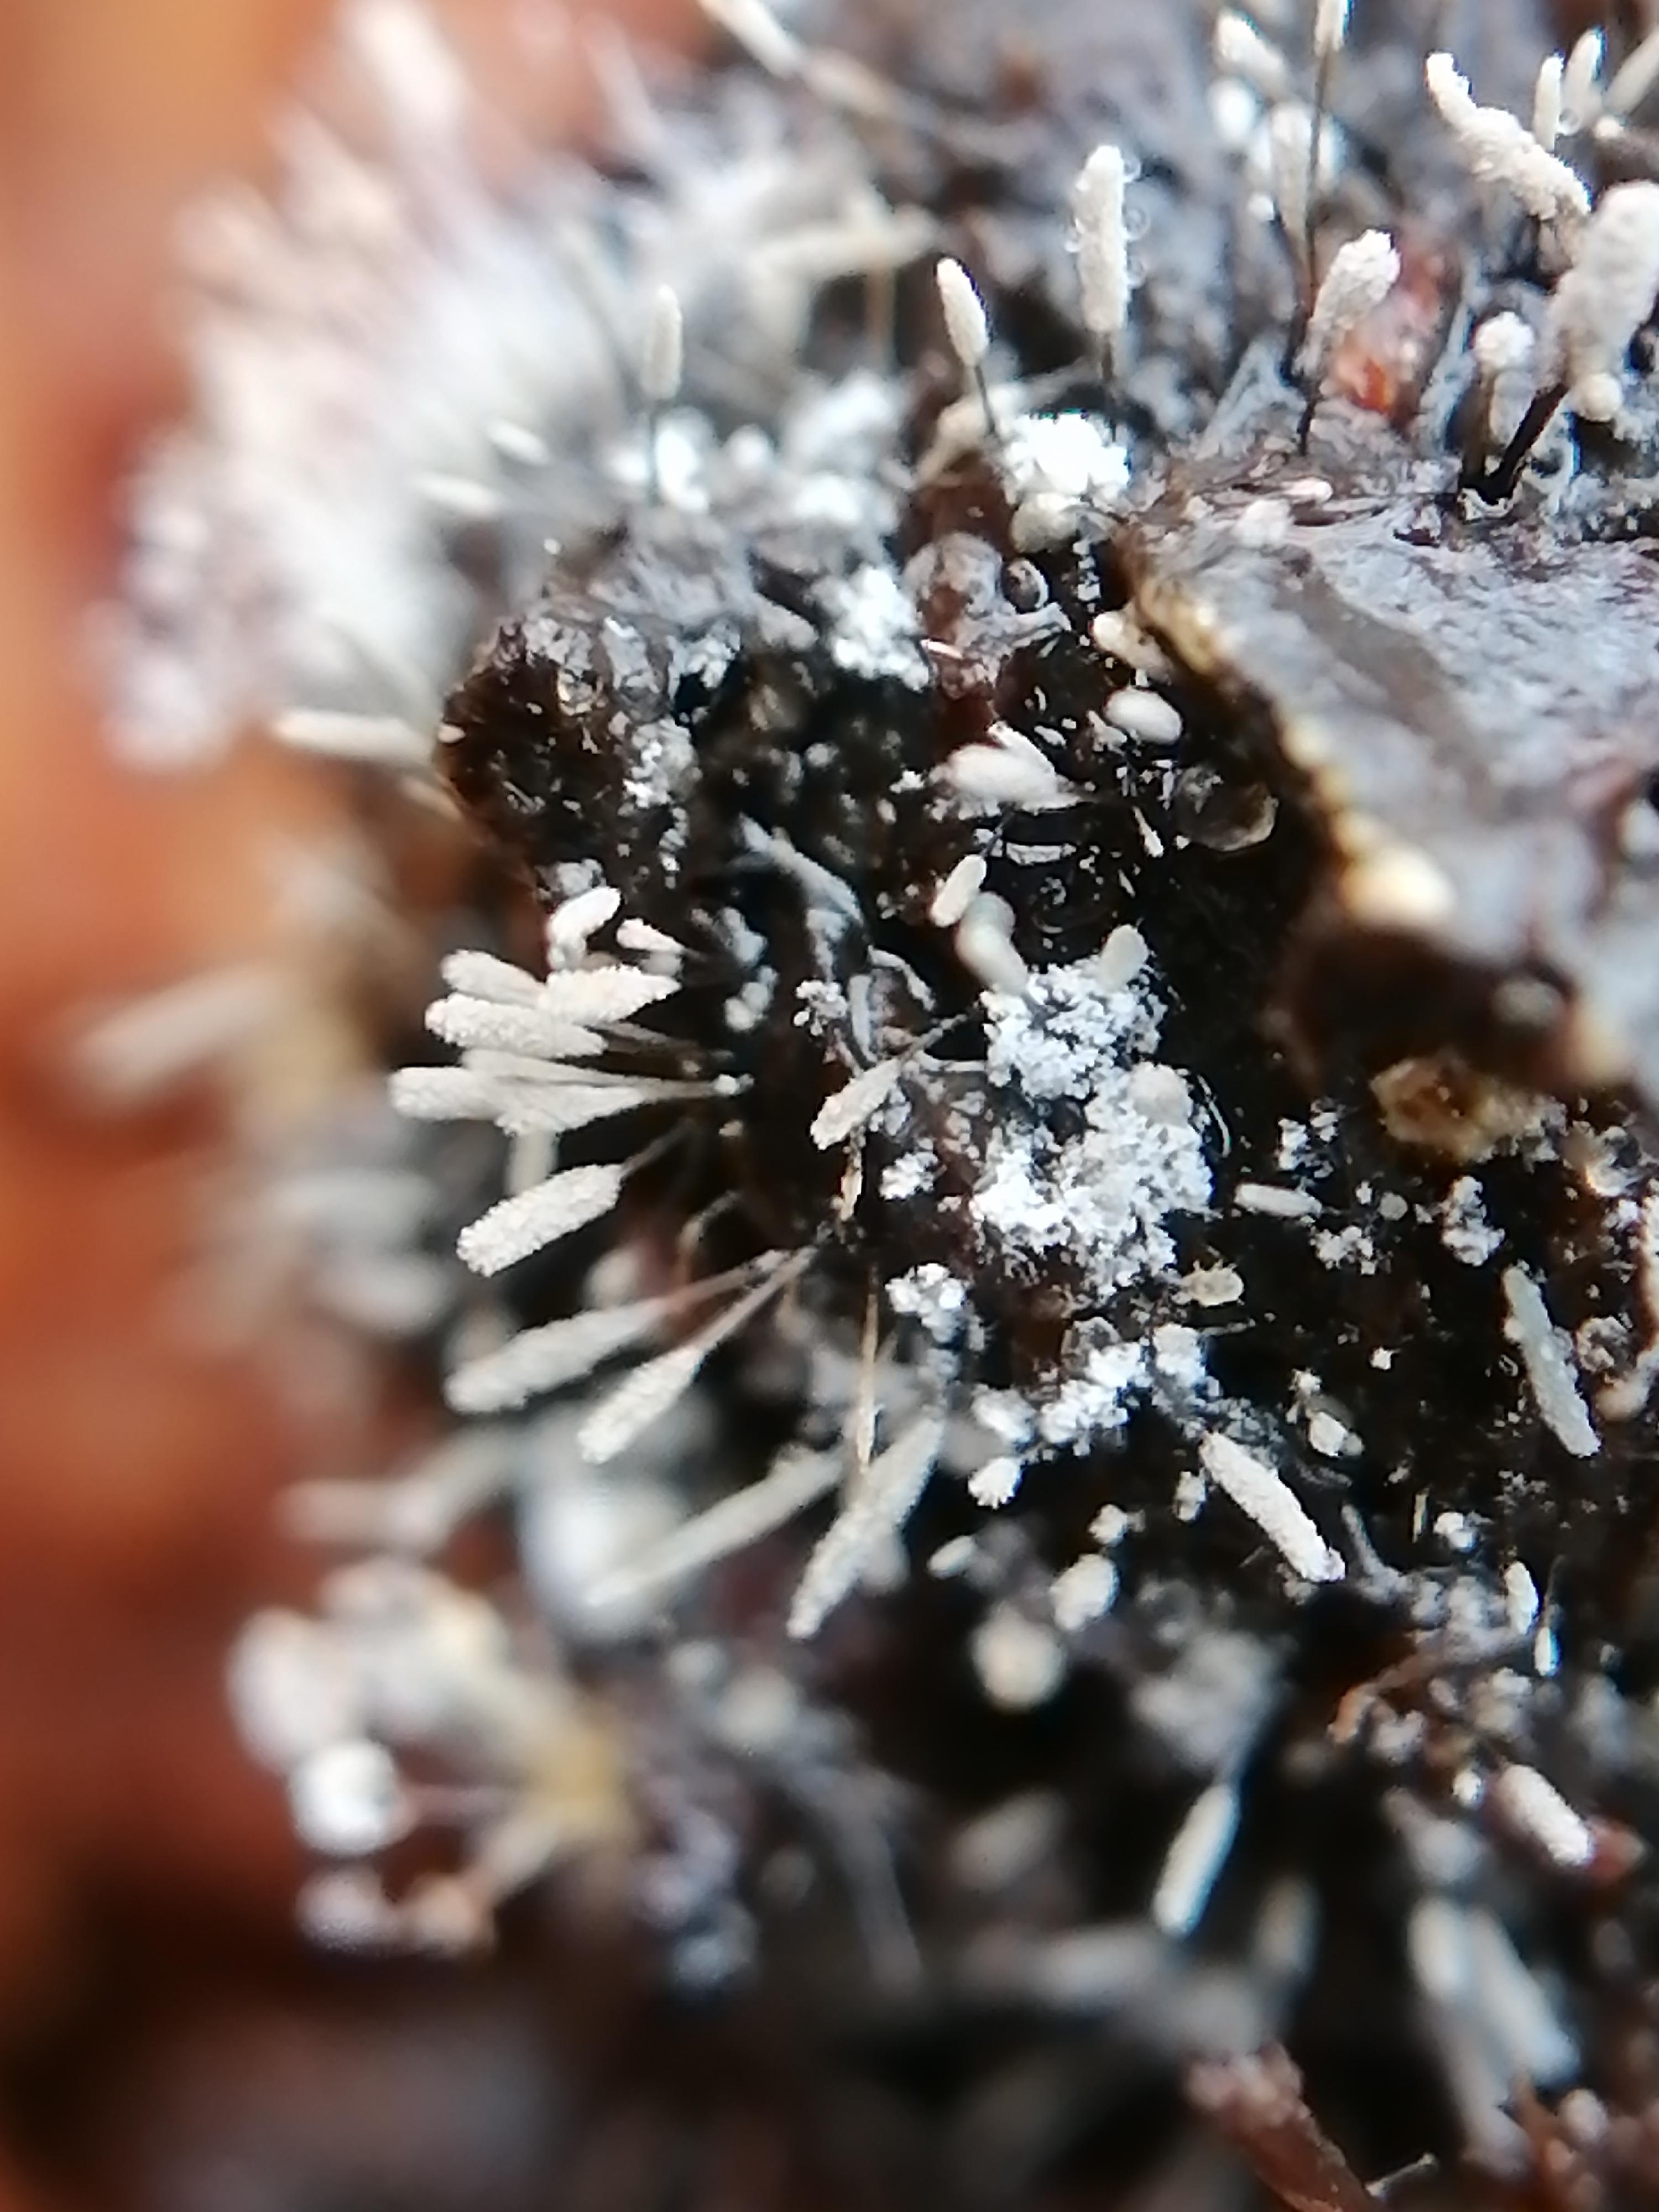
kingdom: Fungi
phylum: Ascomycota
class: Sordariomycetes
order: Microascales
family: Microascaceae
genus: Cephalotrichum
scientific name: Cephalotrichum stemonitis
